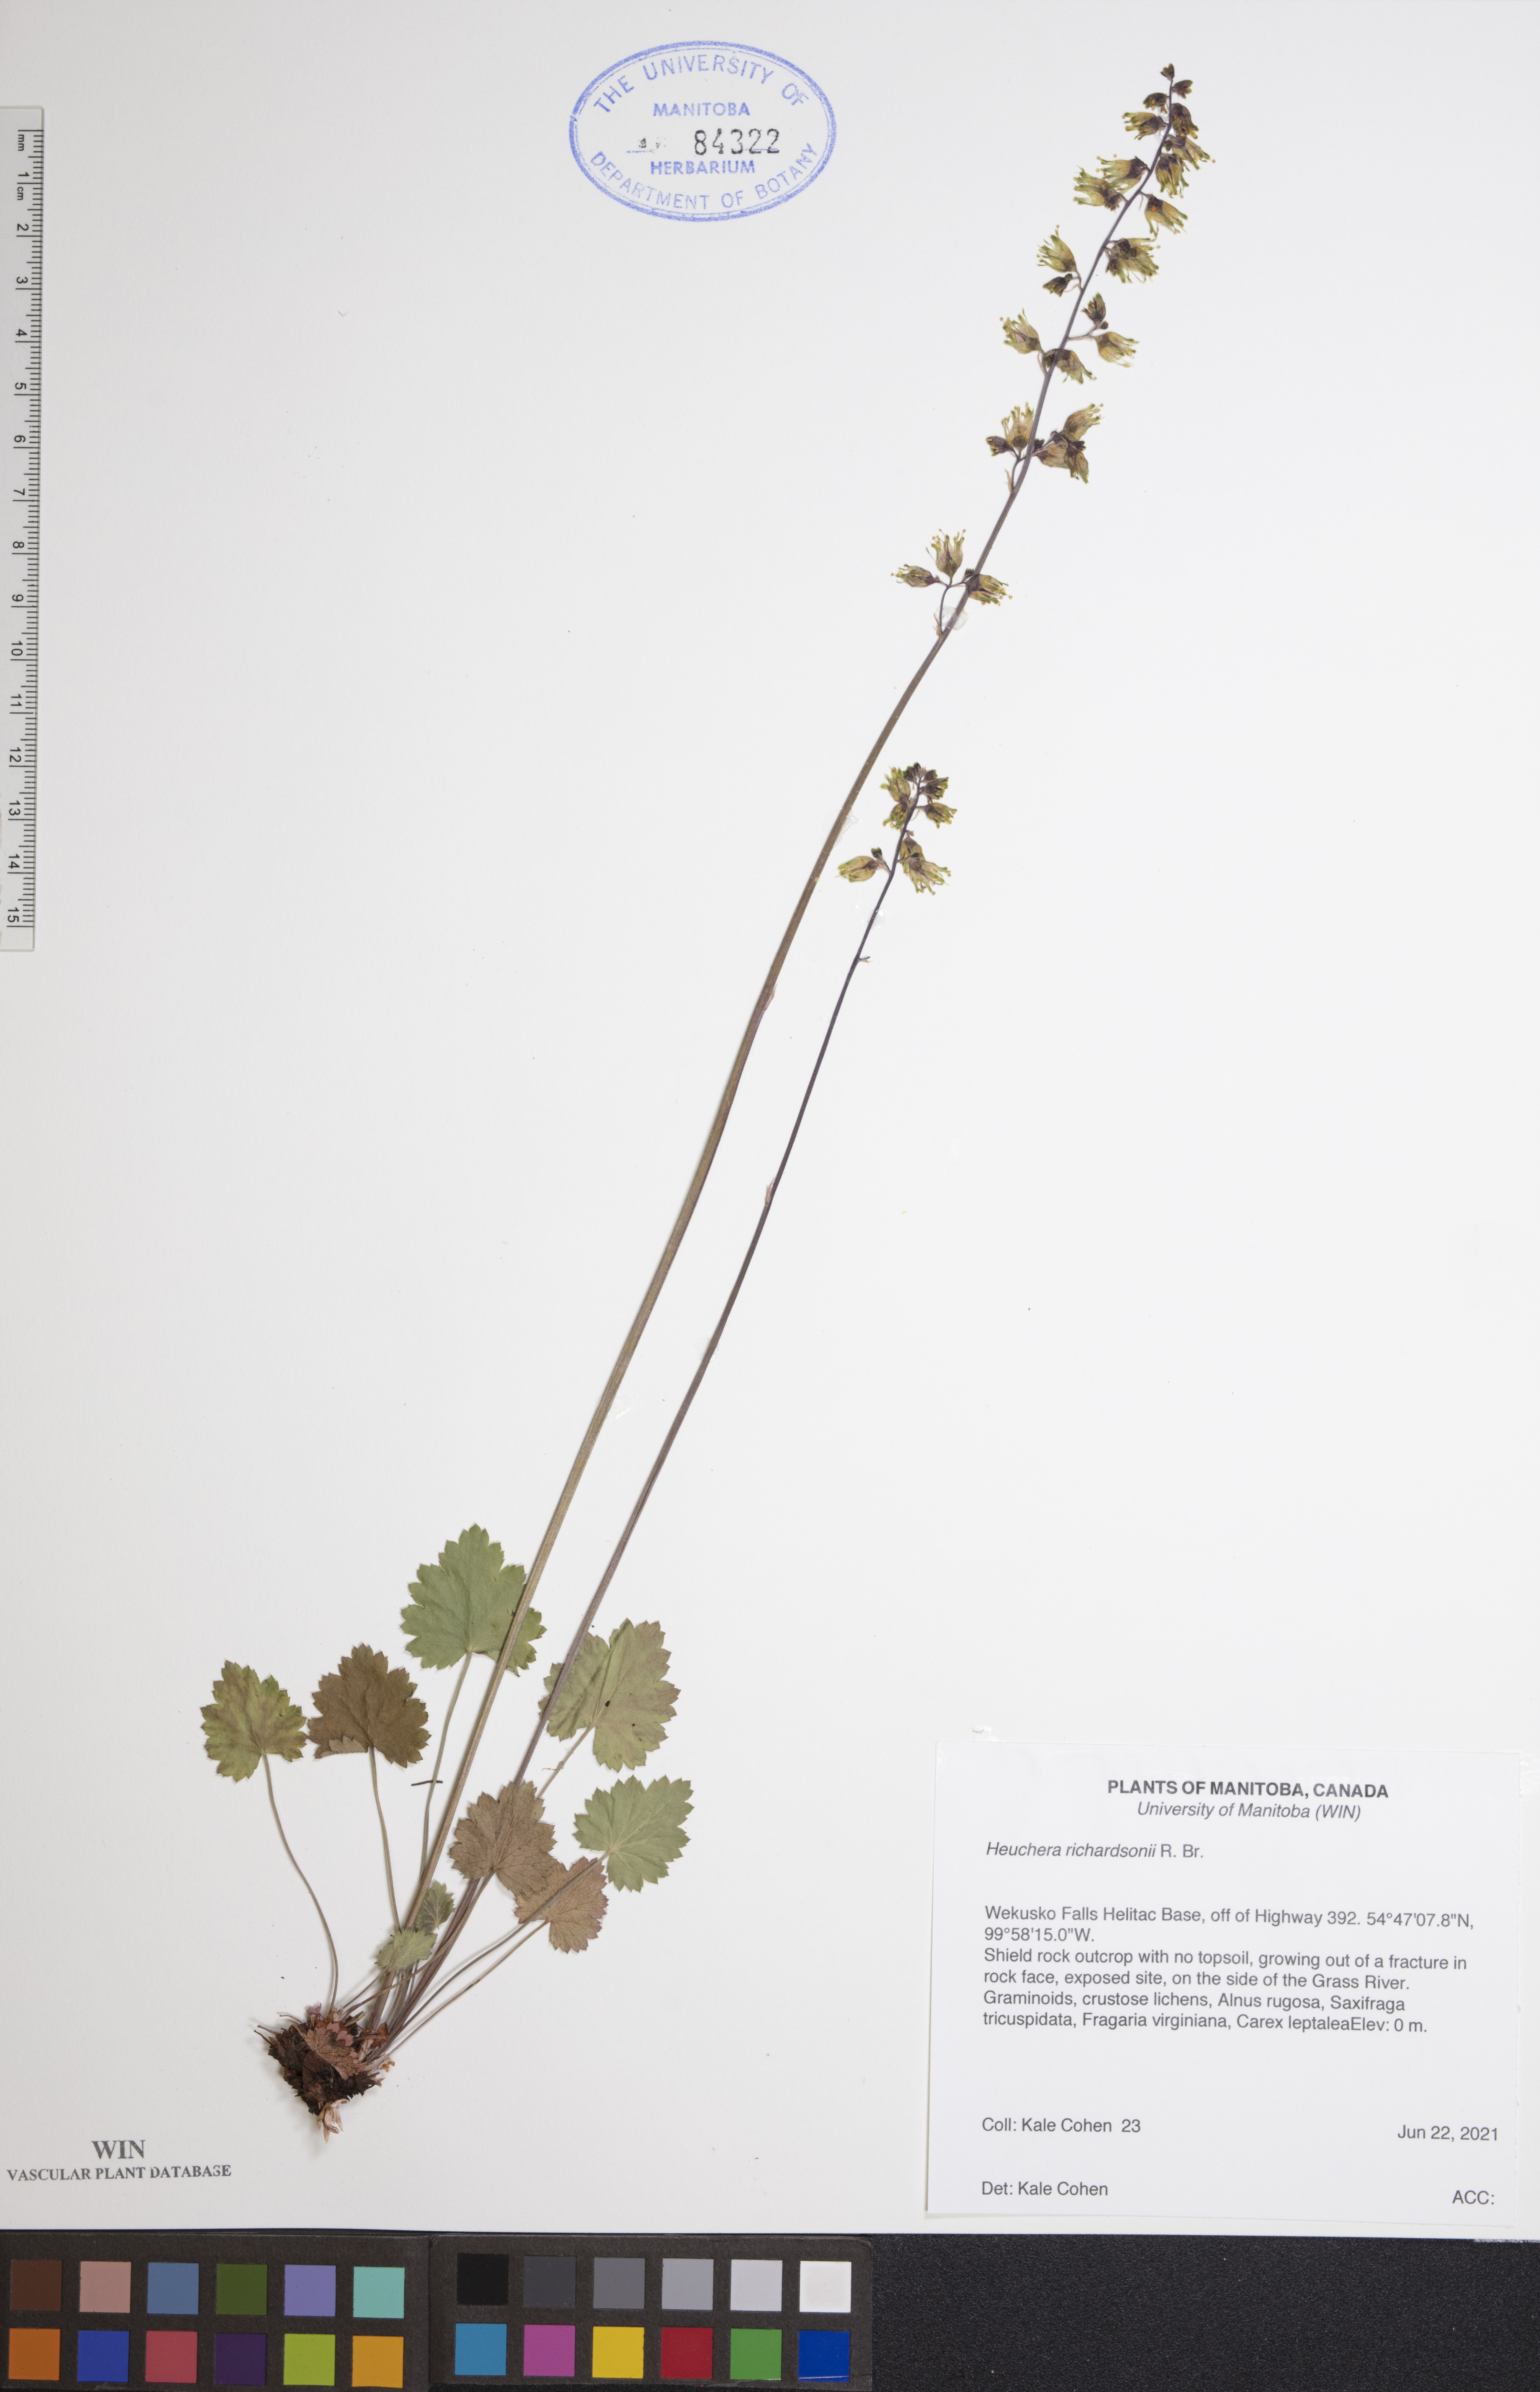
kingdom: Plantae
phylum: Tracheophyta
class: Magnoliopsida
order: Saxifragales
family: Saxifragaceae
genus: Heuchera
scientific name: Heuchera richardsonii
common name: Richardson's alumroot
